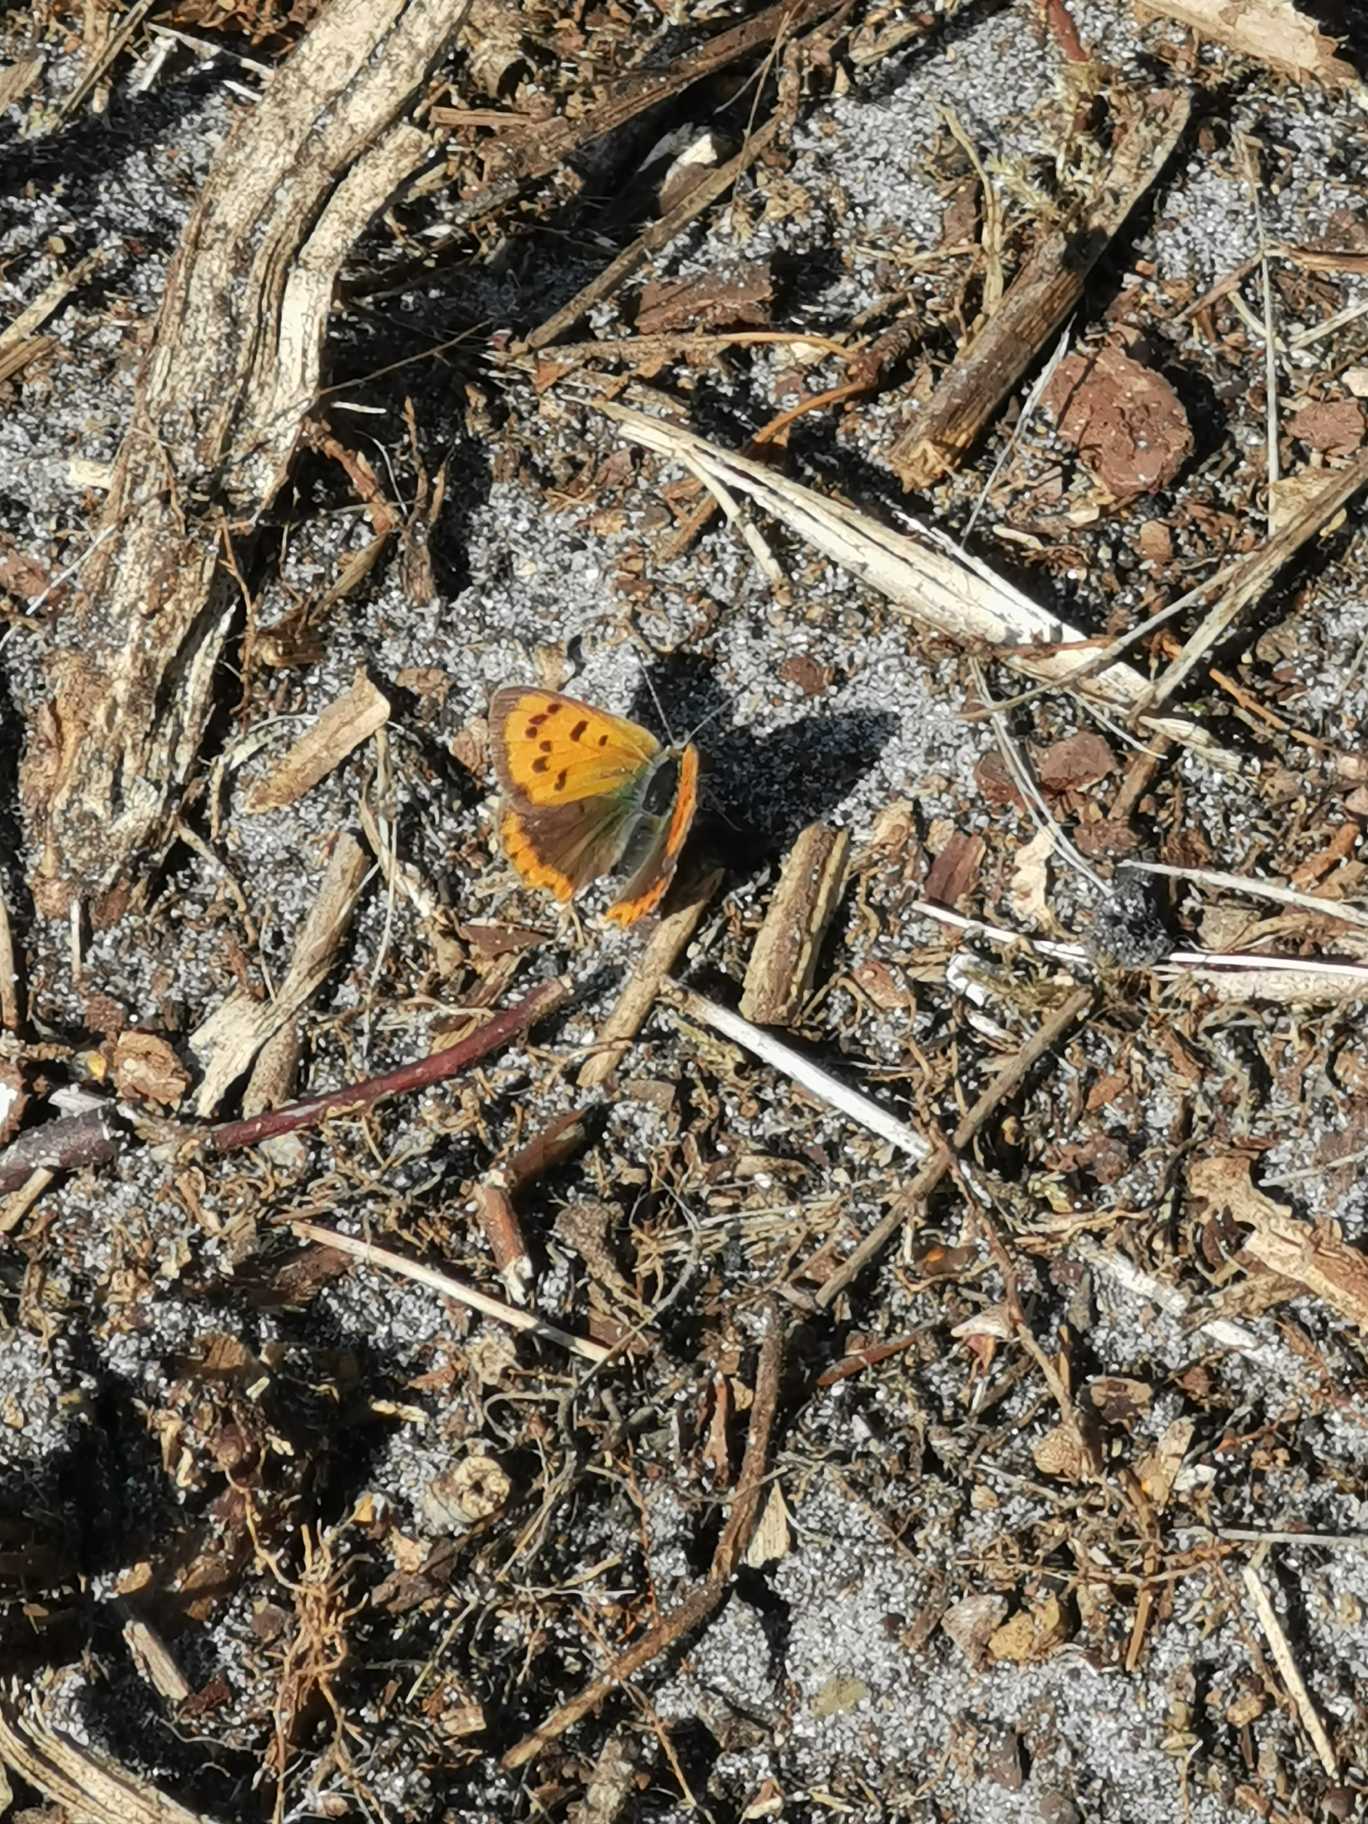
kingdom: Animalia
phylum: Arthropoda
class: Insecta
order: Lepidoptera
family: Lycaenidae
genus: Lycaena
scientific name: Lycaena phlaeas
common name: Lille ildfugl
